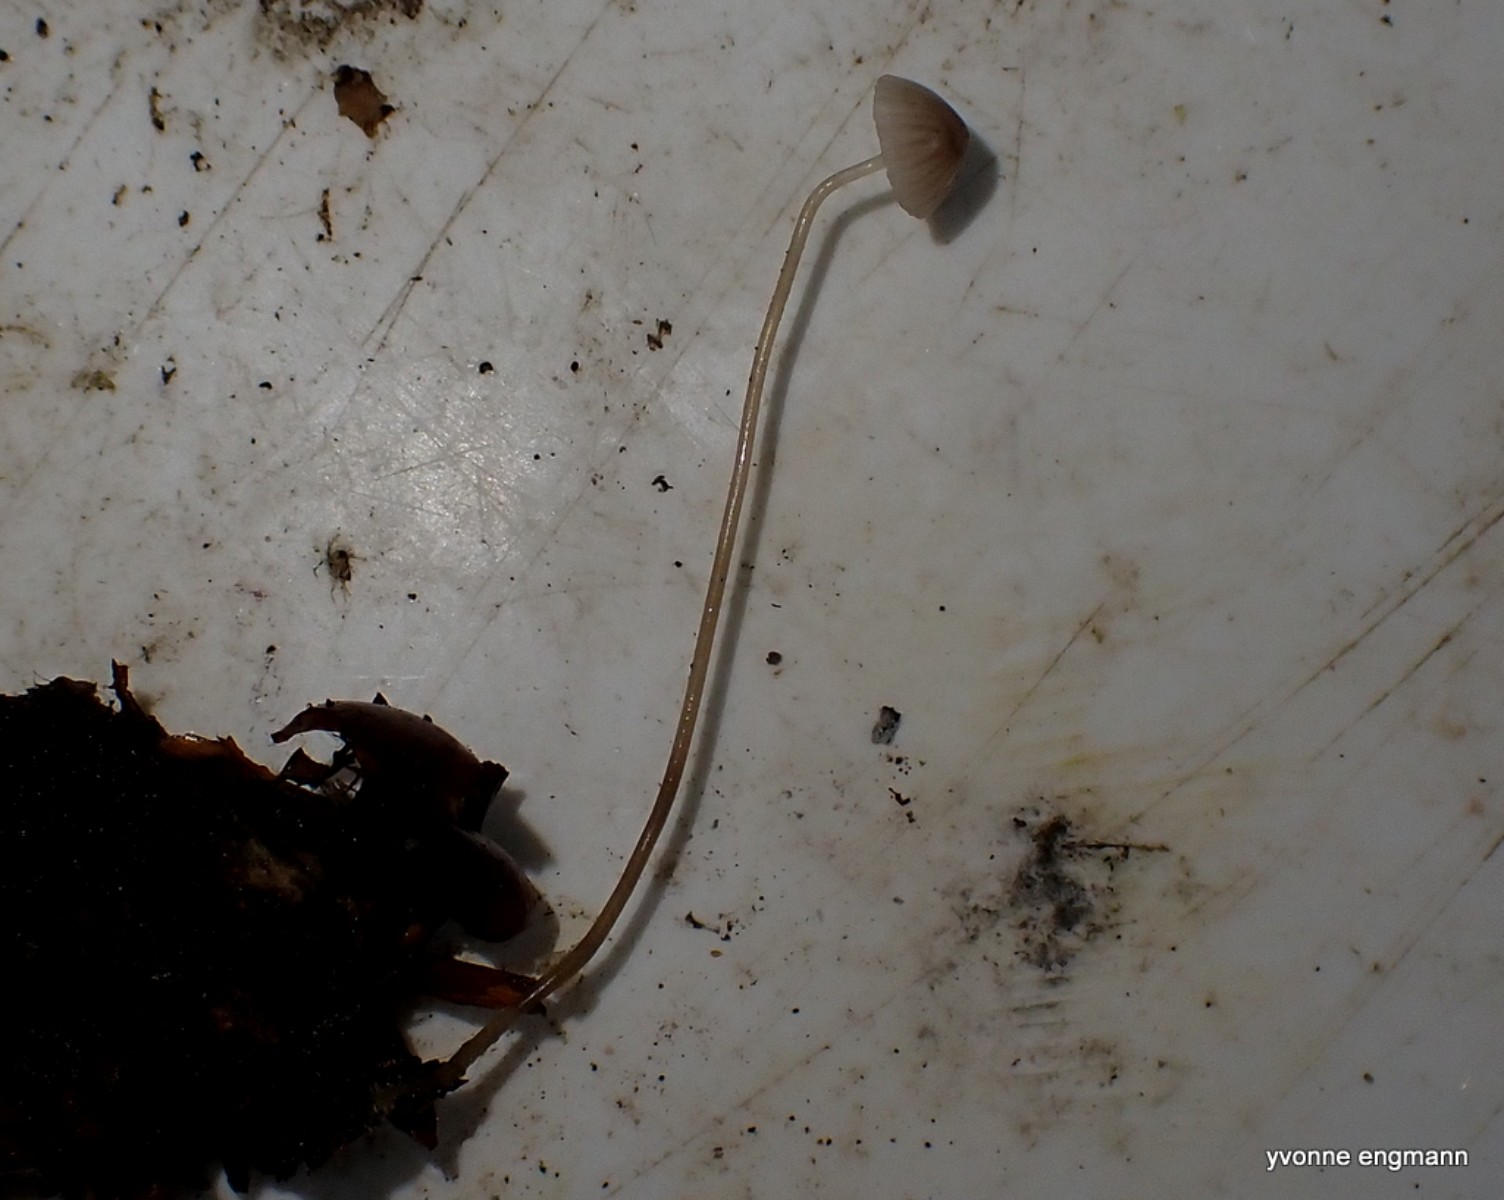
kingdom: Fungi
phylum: Basidiomycota
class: Agaricomycetes
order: Agaricales
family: Mycenaceae
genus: Mycena
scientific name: Mycena vitilis
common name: blankstokket huesvamp
